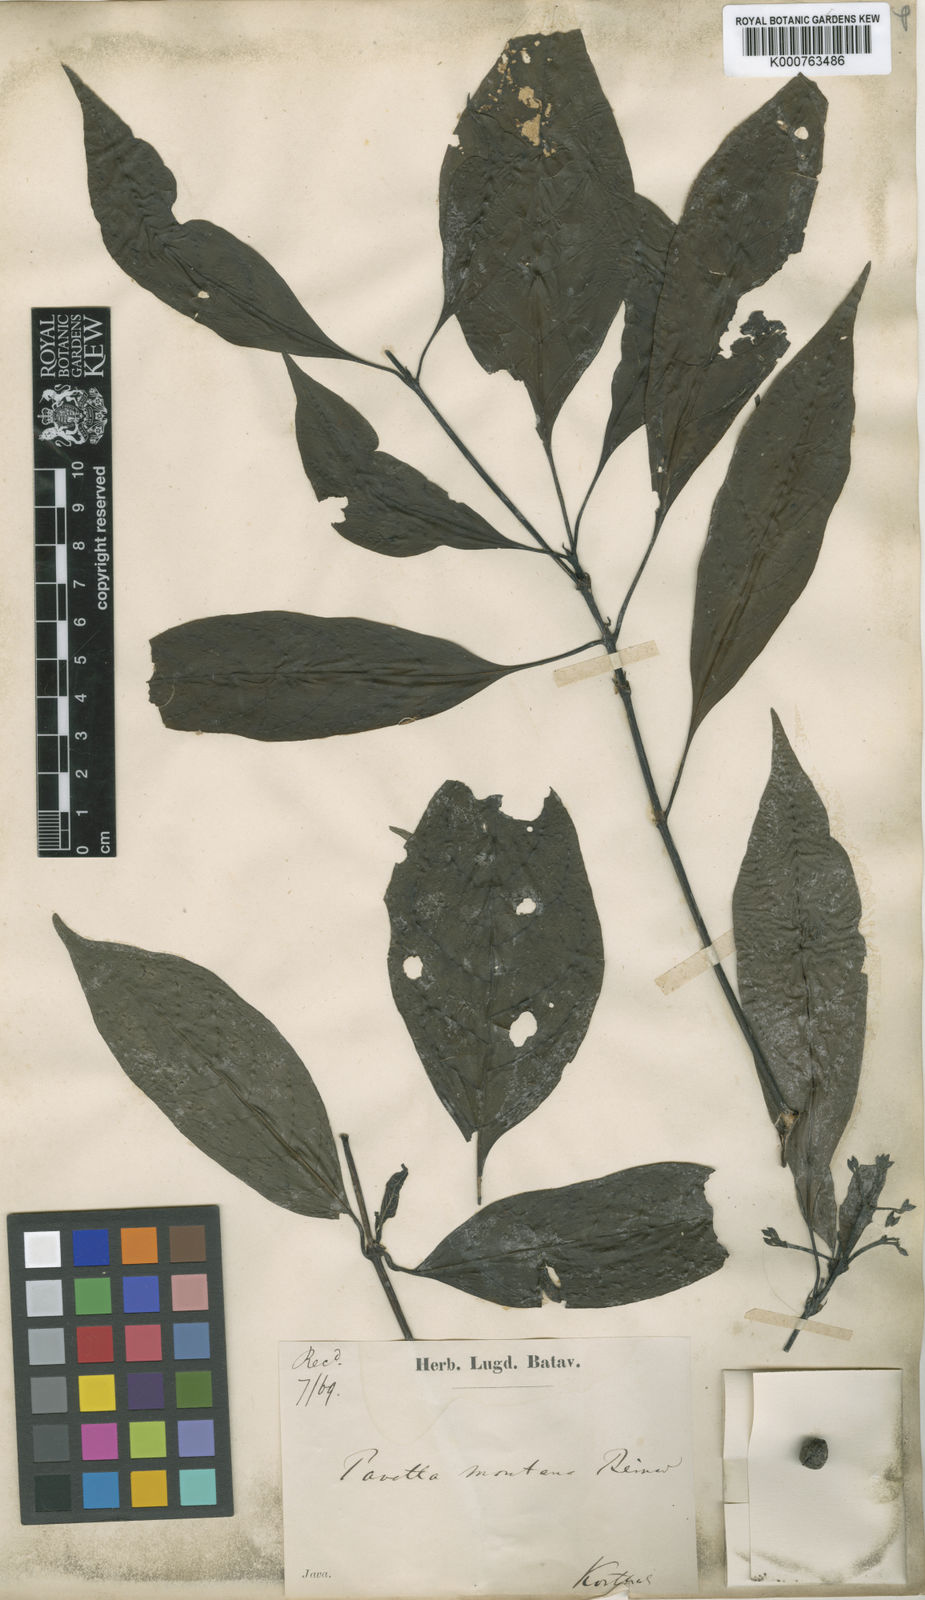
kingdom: Plantae
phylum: Tracheophyta
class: Magnoliopsida
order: Gentianales
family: Rubiaceae
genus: Pavetta
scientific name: Pavetta montana
